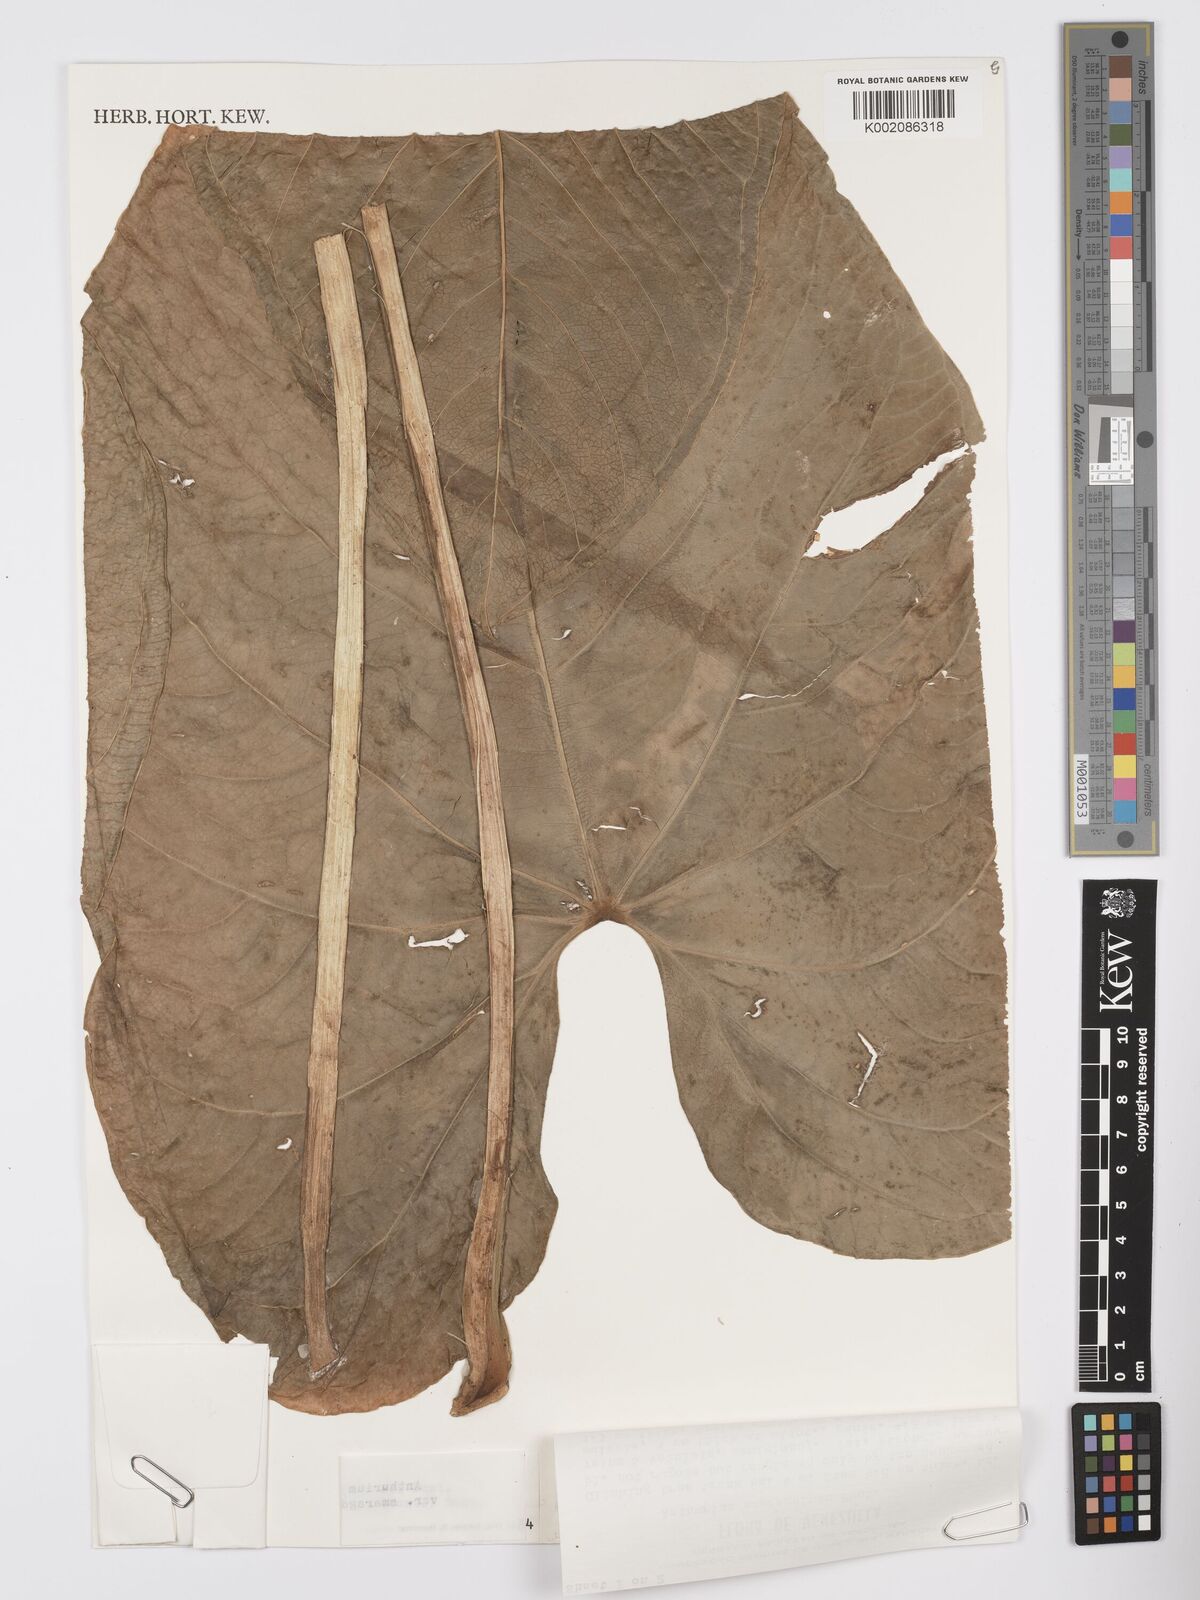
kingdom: Plantae
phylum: Tracheophyta
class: Liliopsida
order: Alismatales
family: Araceae
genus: Anthurium
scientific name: Anthurium julianii
